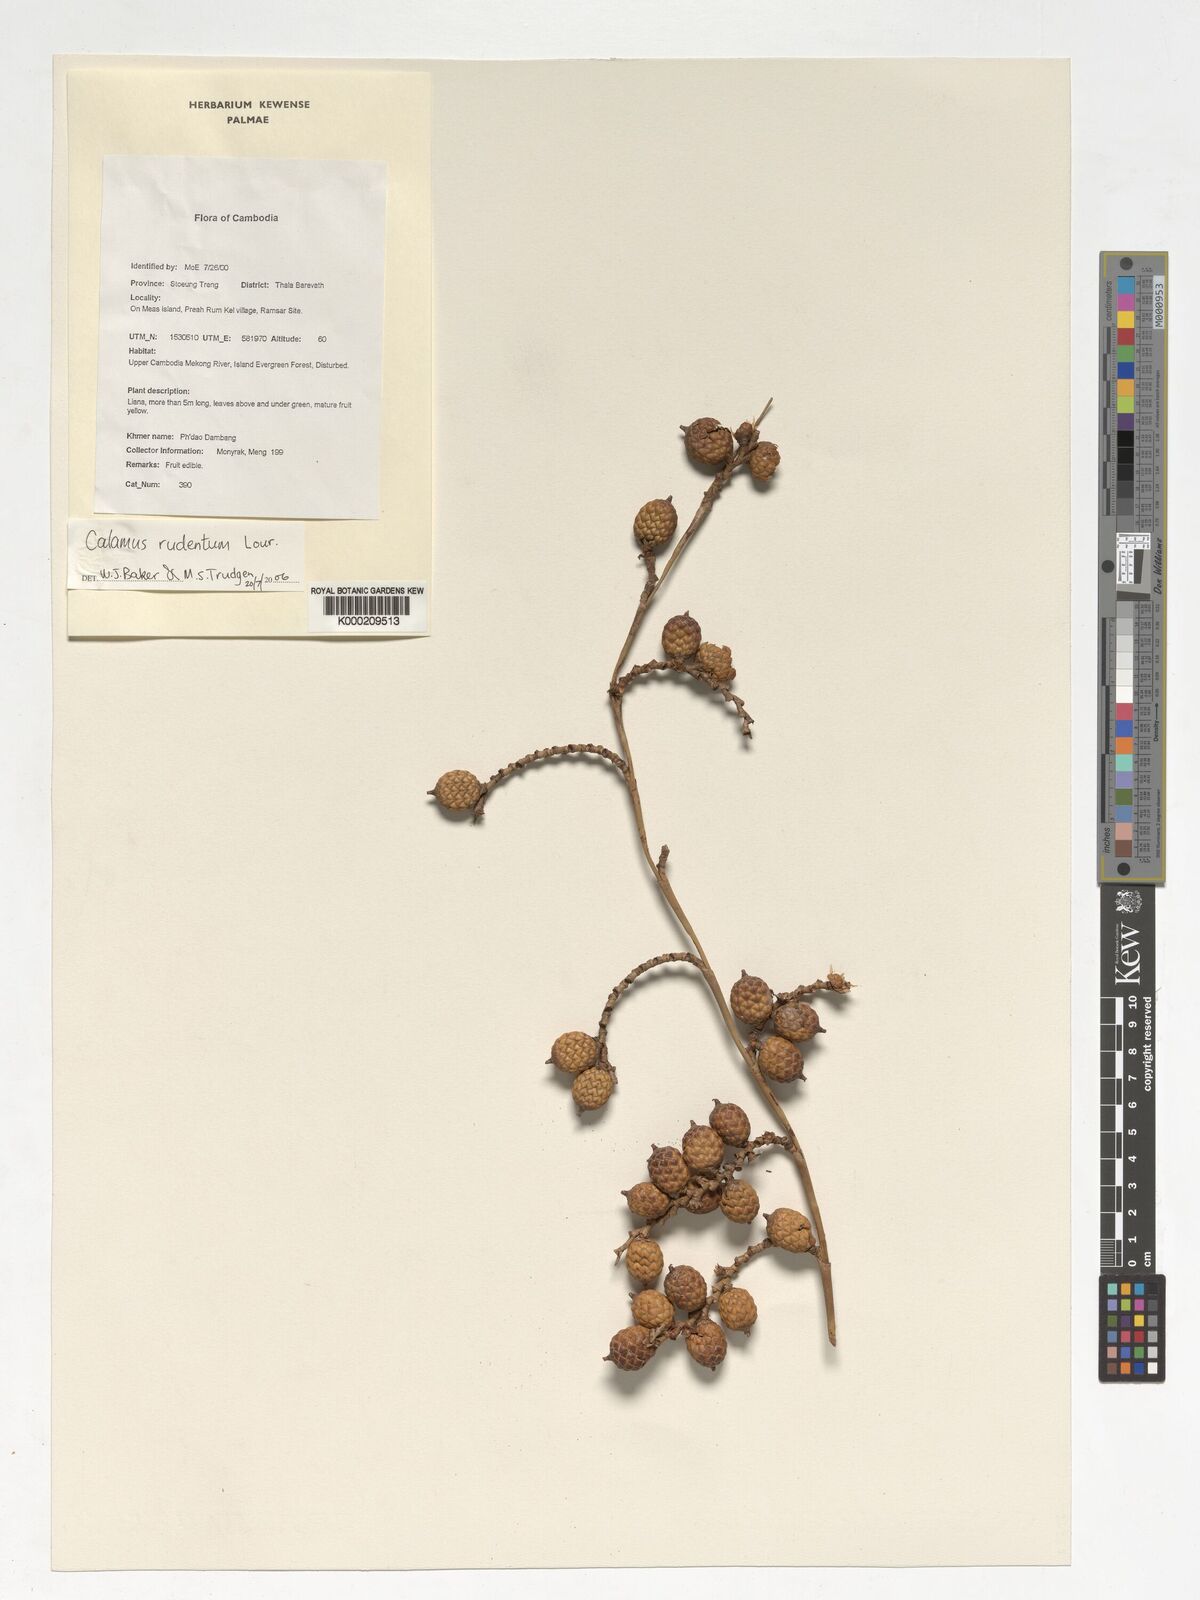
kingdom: Plantae
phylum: Tracheophyta
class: Liliopsida
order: Arecales
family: Arecaceae
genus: Calamus
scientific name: Calamus rudentum
